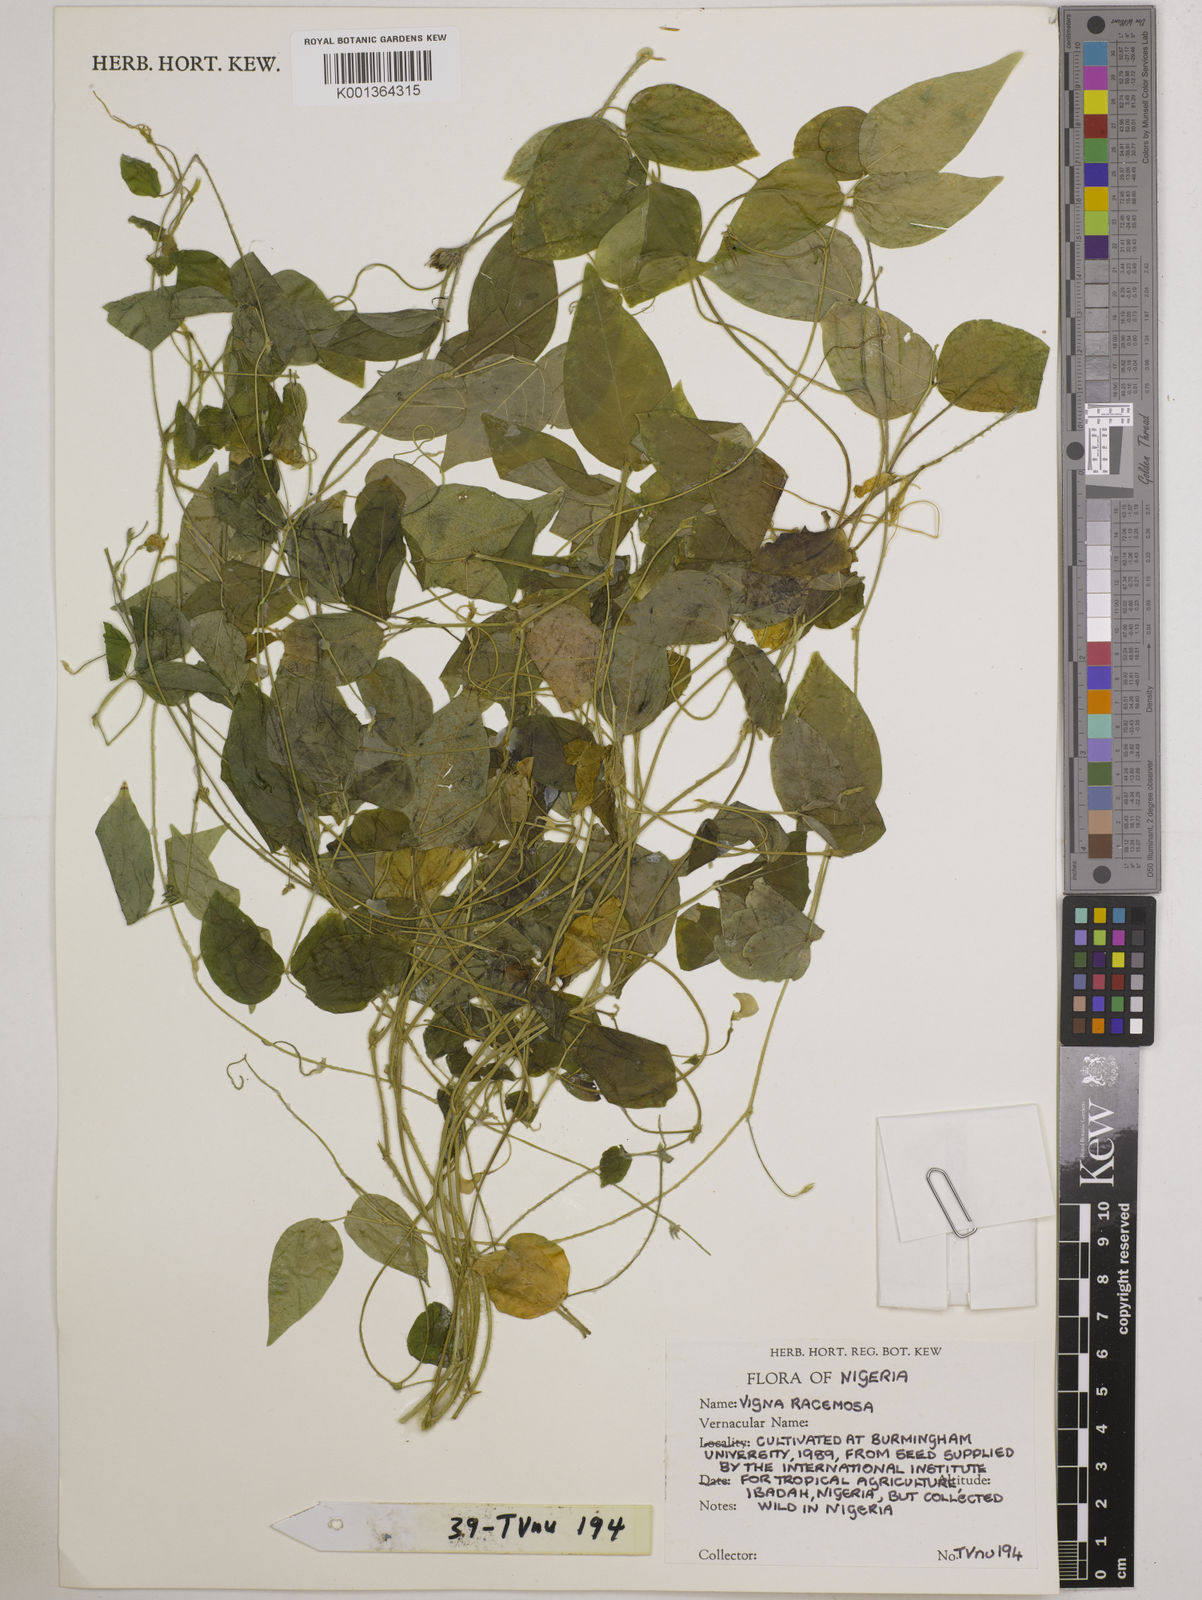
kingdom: Plantae
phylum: Tracheophyta
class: Magnoliopsida
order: Fabales
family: Fabaceae
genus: Vigna
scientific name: Vigna
